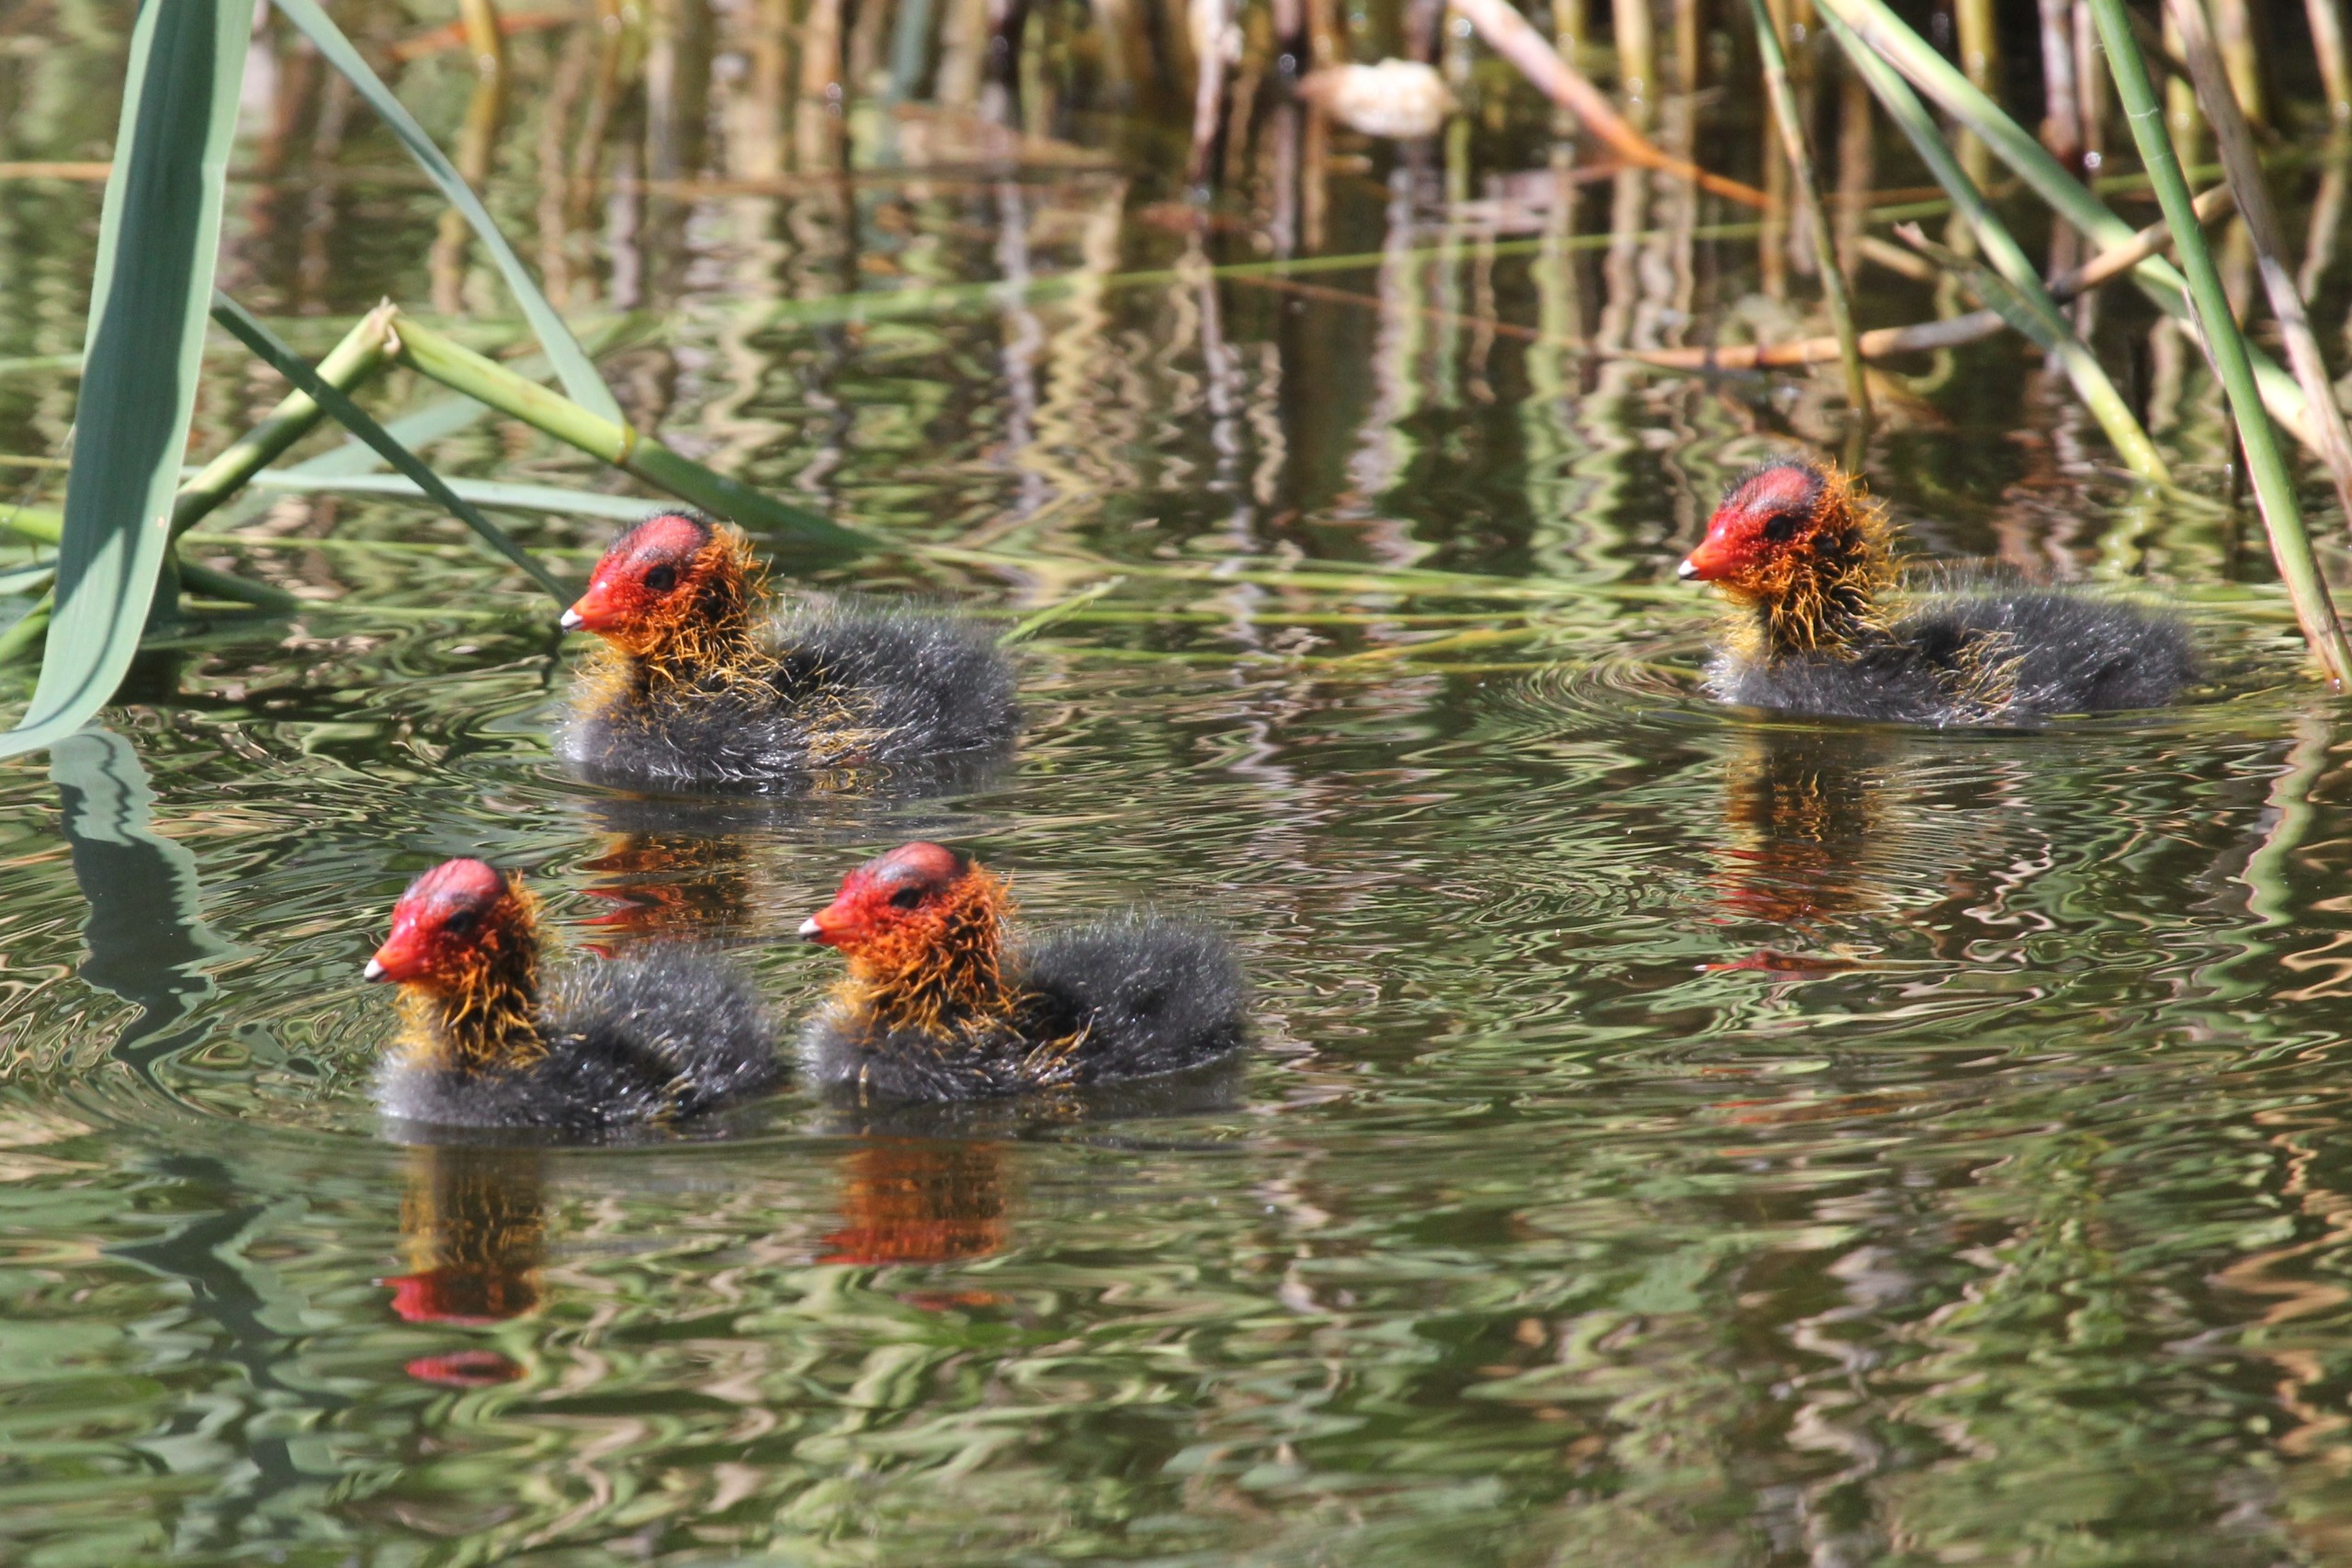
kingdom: Animalia
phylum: Chordata
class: Aves
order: Gruiformes
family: Rallidae
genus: Fulica
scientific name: Fulica atra
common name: Blishøne
